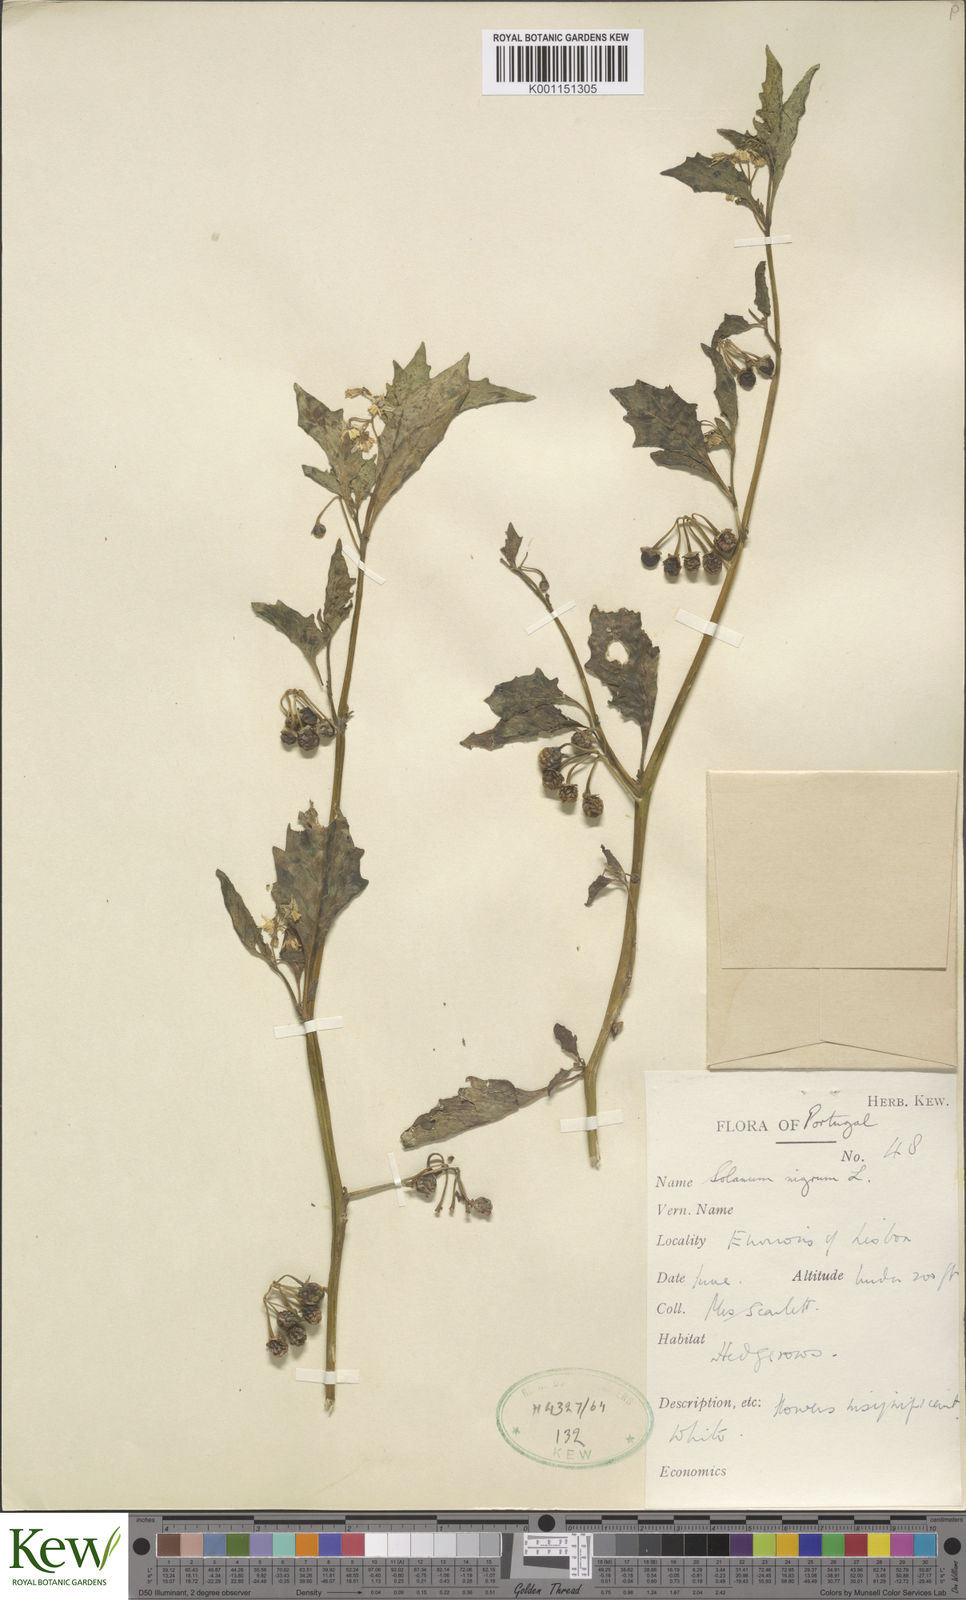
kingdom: Plantae
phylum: Tracheophyta
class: Magnoliopsida
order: Solanales
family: Solanaceae
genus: Solanum
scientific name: Solanum nigrum
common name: Black nightshade
